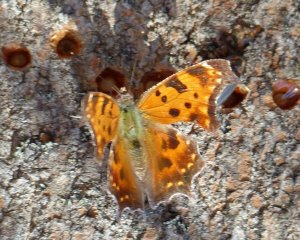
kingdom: Animalia
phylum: Arthropoda
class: Insecta
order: Lepidoptera
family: Nymphalidae
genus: Polygonia
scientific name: Polygonia comma
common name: Eastern Comma
